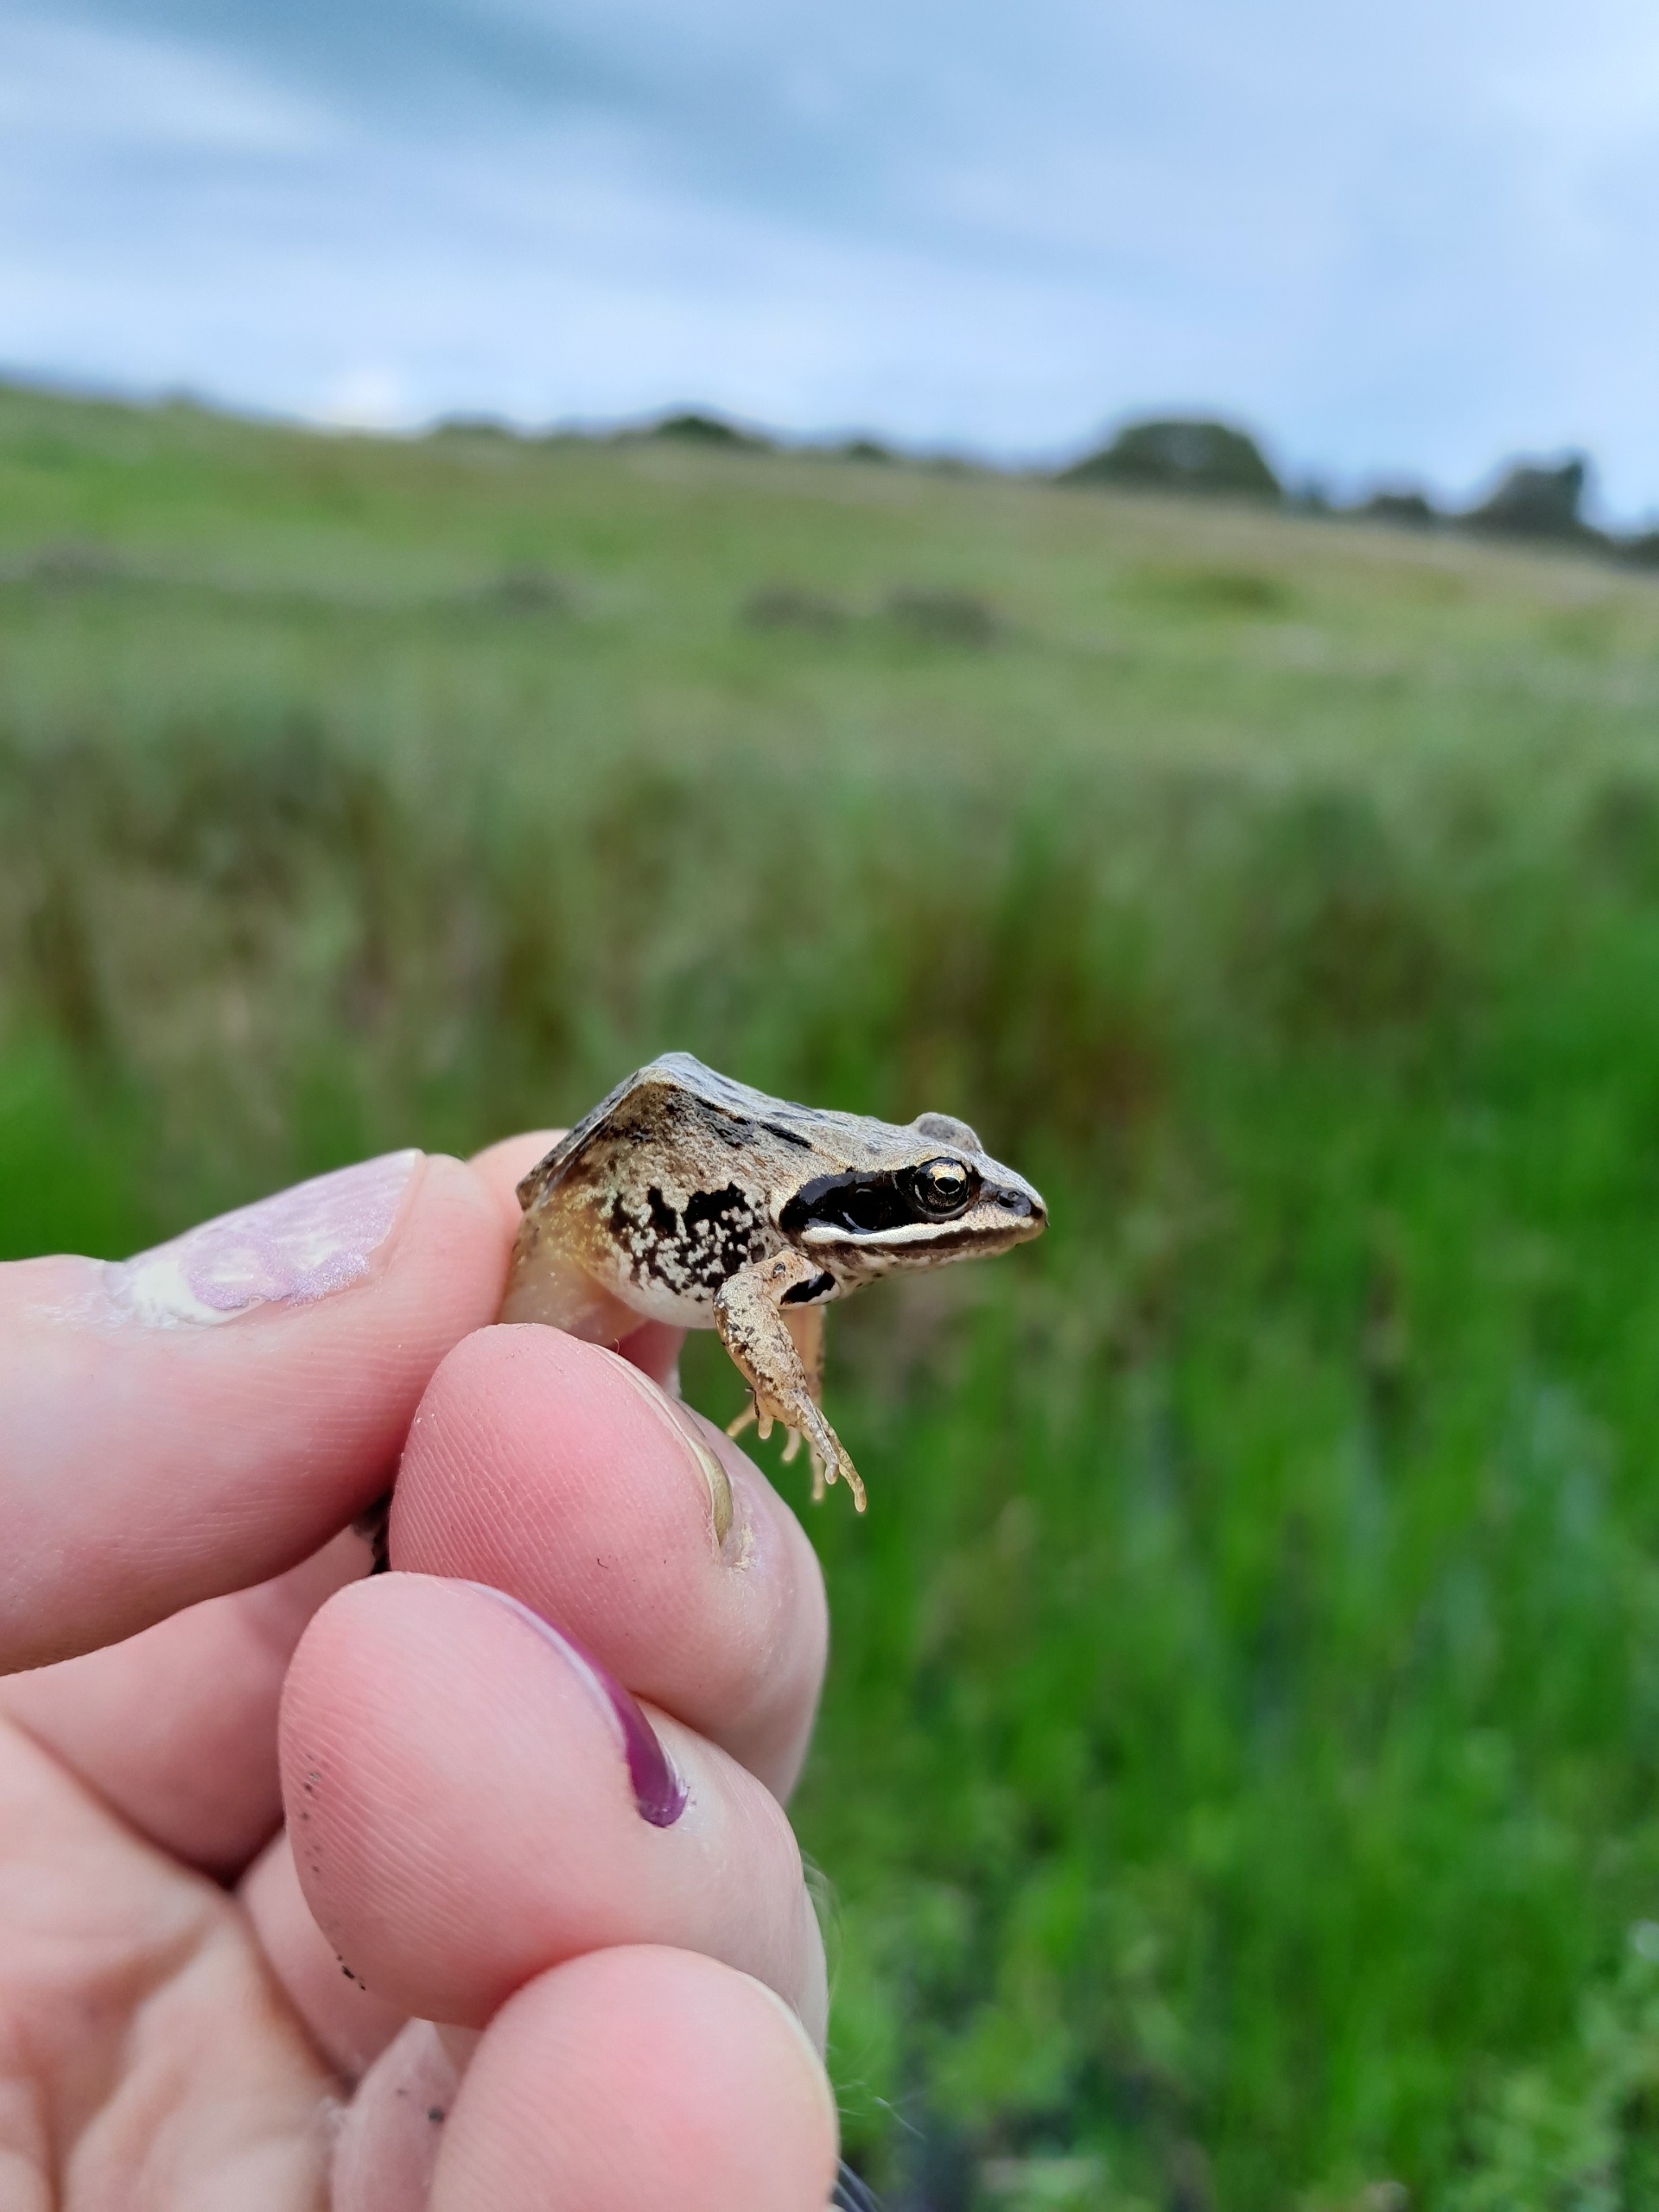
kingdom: Animalia
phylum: Chordata
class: Amphibia
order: Anura
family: Ranidae
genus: Rana
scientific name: Rana arvalis
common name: Spidssnudet frø
